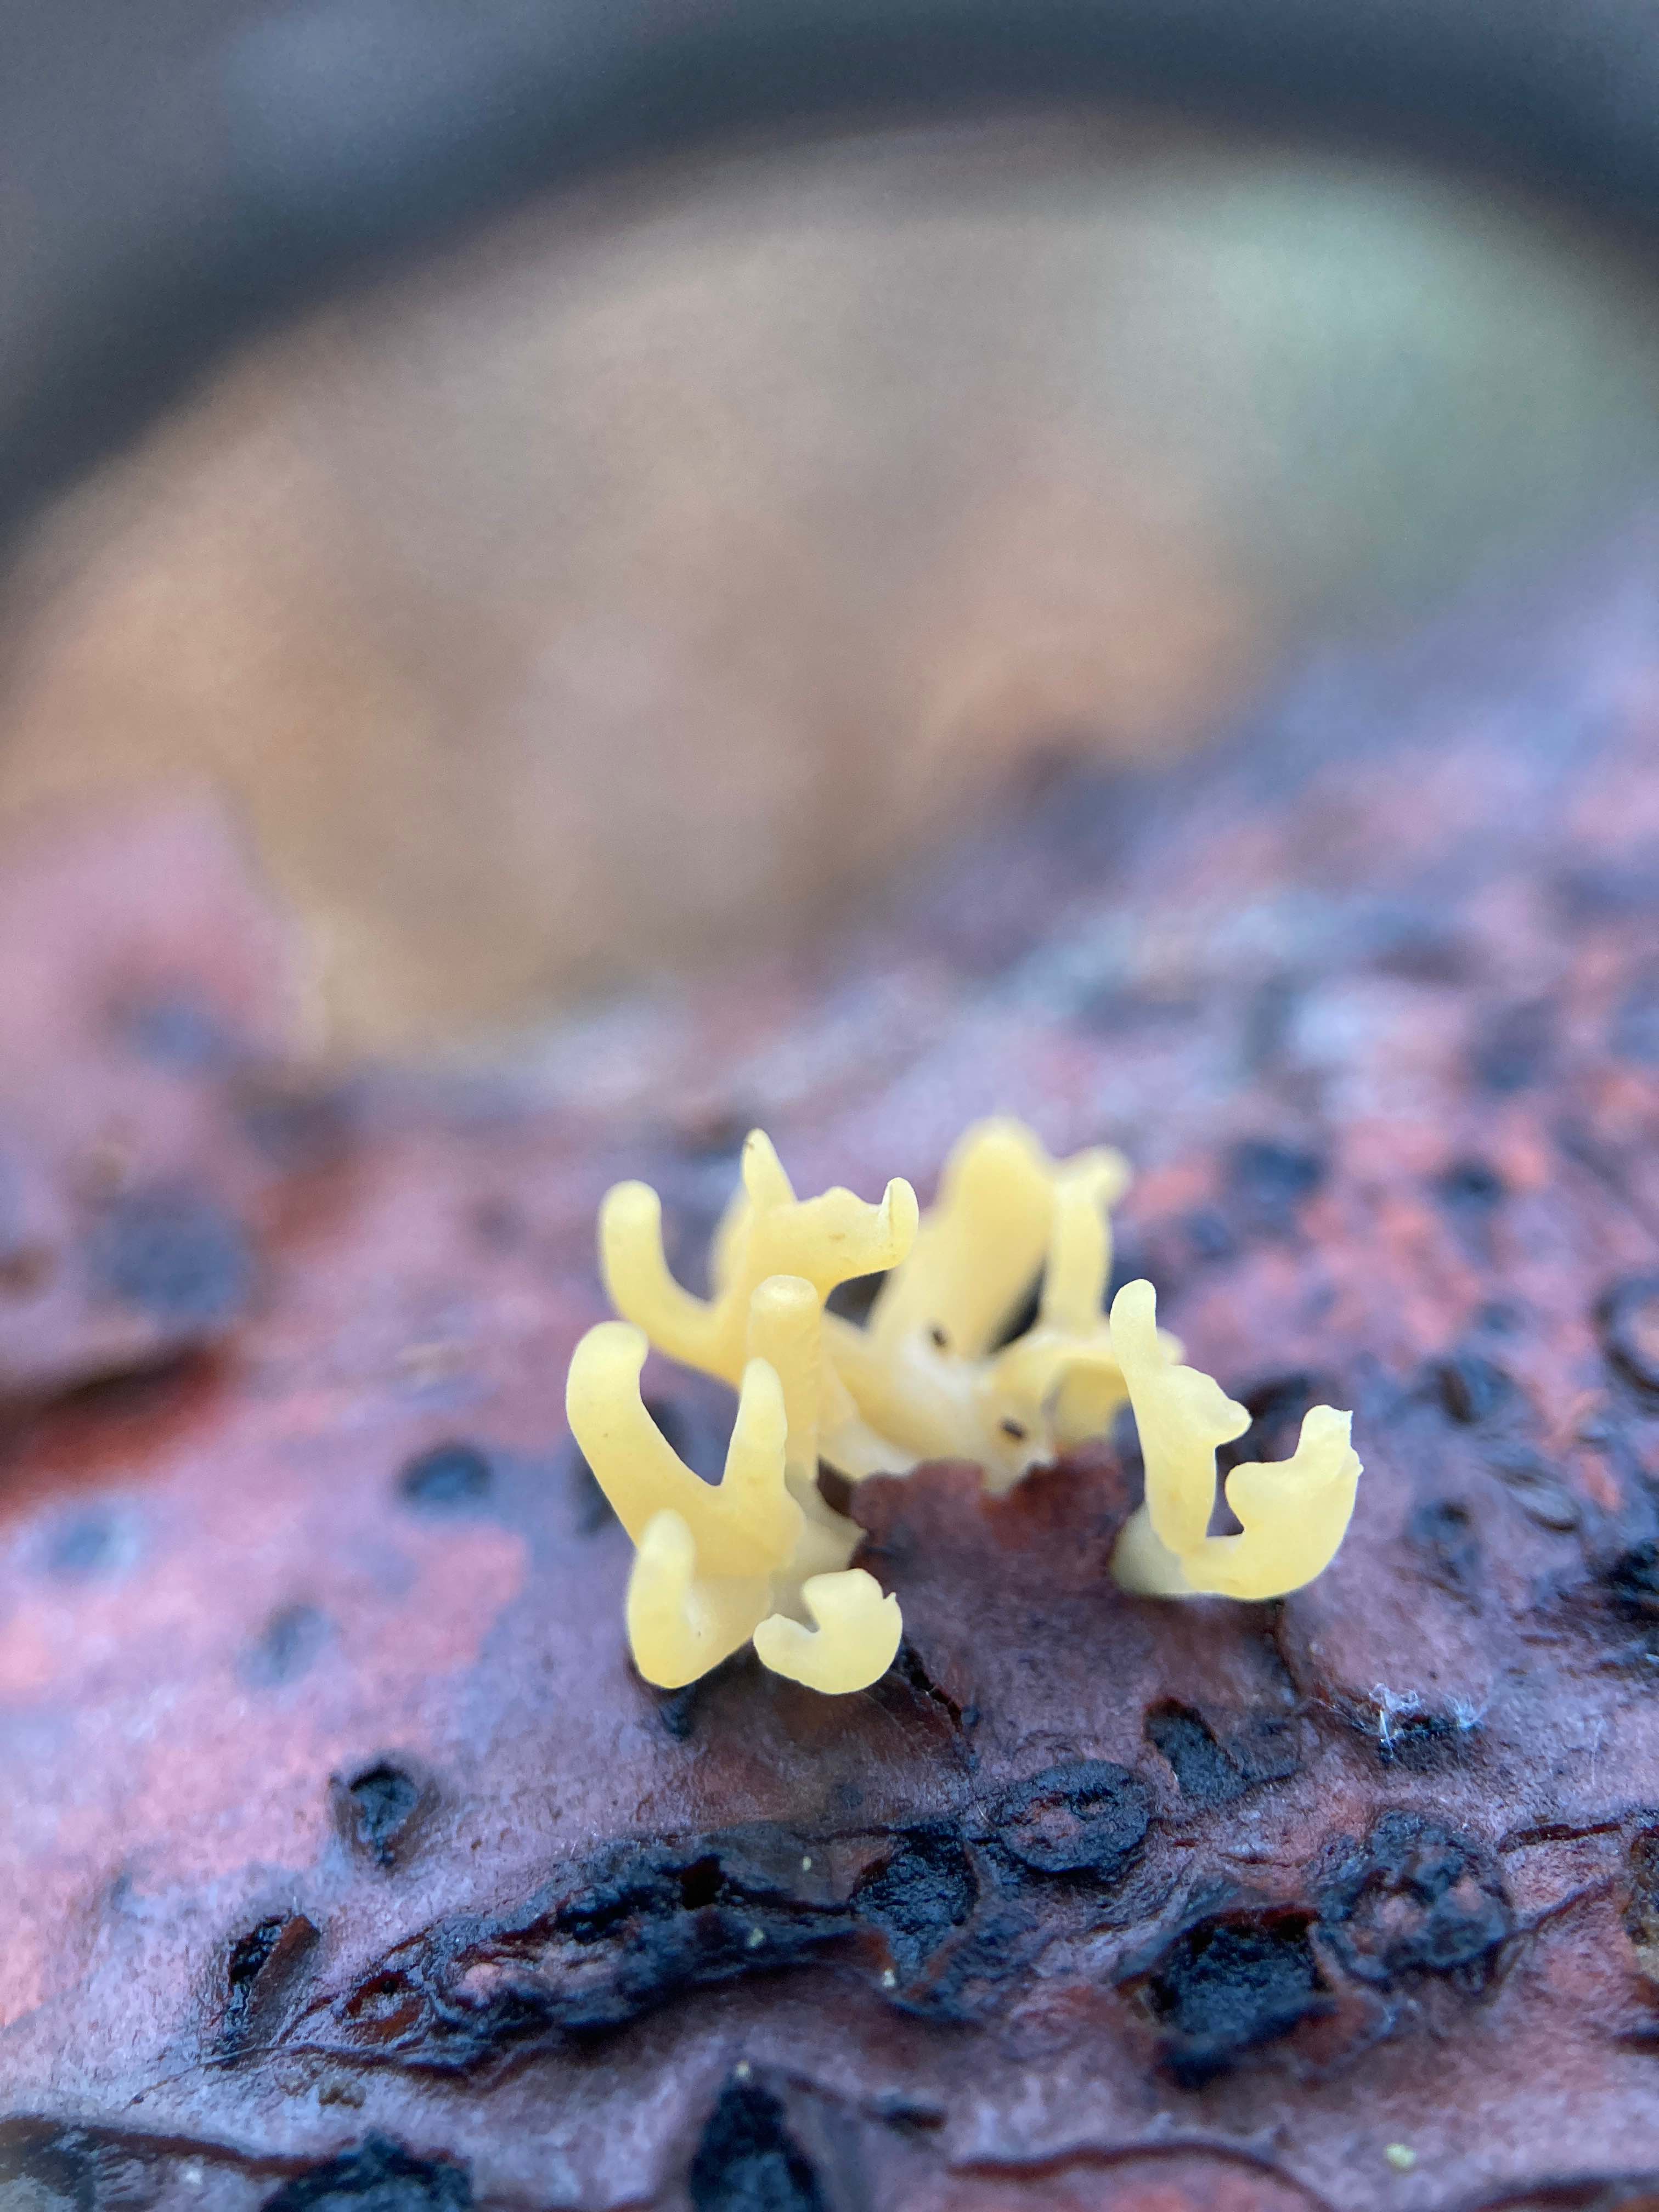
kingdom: Fungi
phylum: Basidiomycota
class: Dacrymycetes
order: Dacrymycetales
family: Dacrymycetaceae
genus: Calocera
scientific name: Calocera cornea
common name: liden guldgaffel
